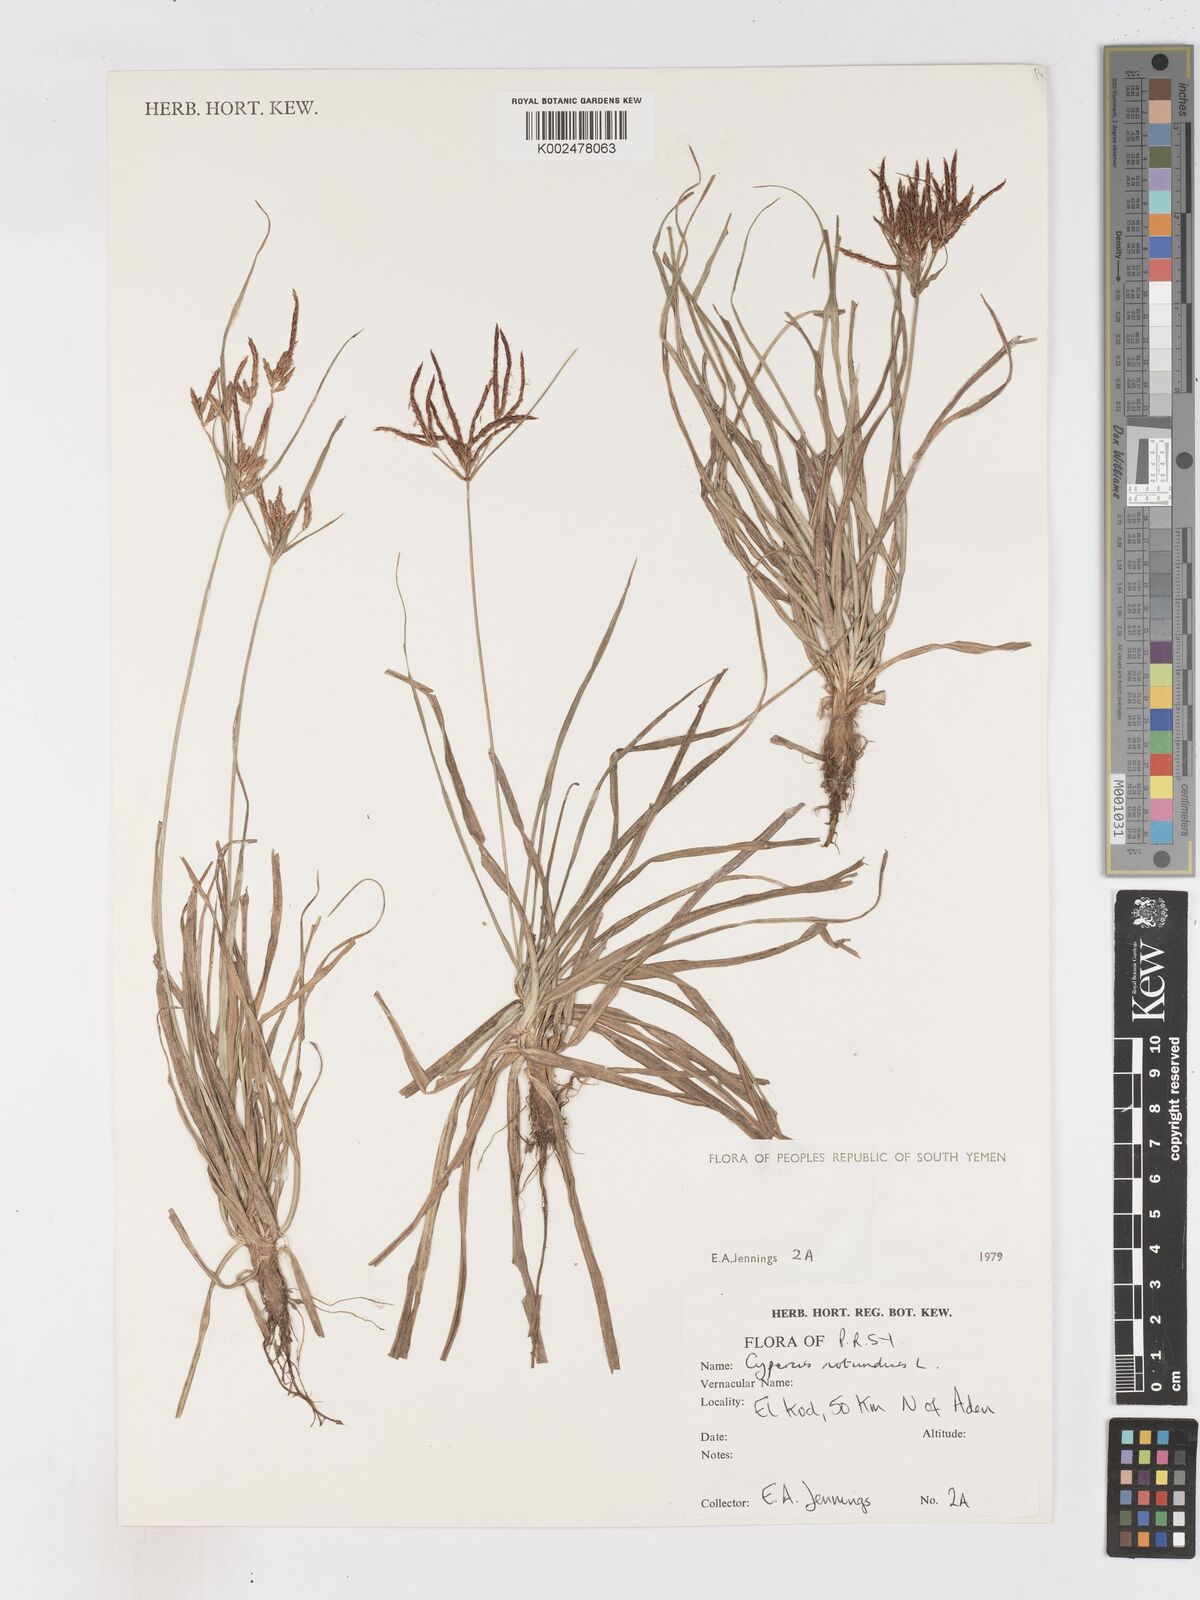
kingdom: Plantae
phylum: Tracheophyta
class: Liliopsida
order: Poales
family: Cyperaceae
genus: Cyperus
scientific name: Cyperus rotundus
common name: Nutgrass
